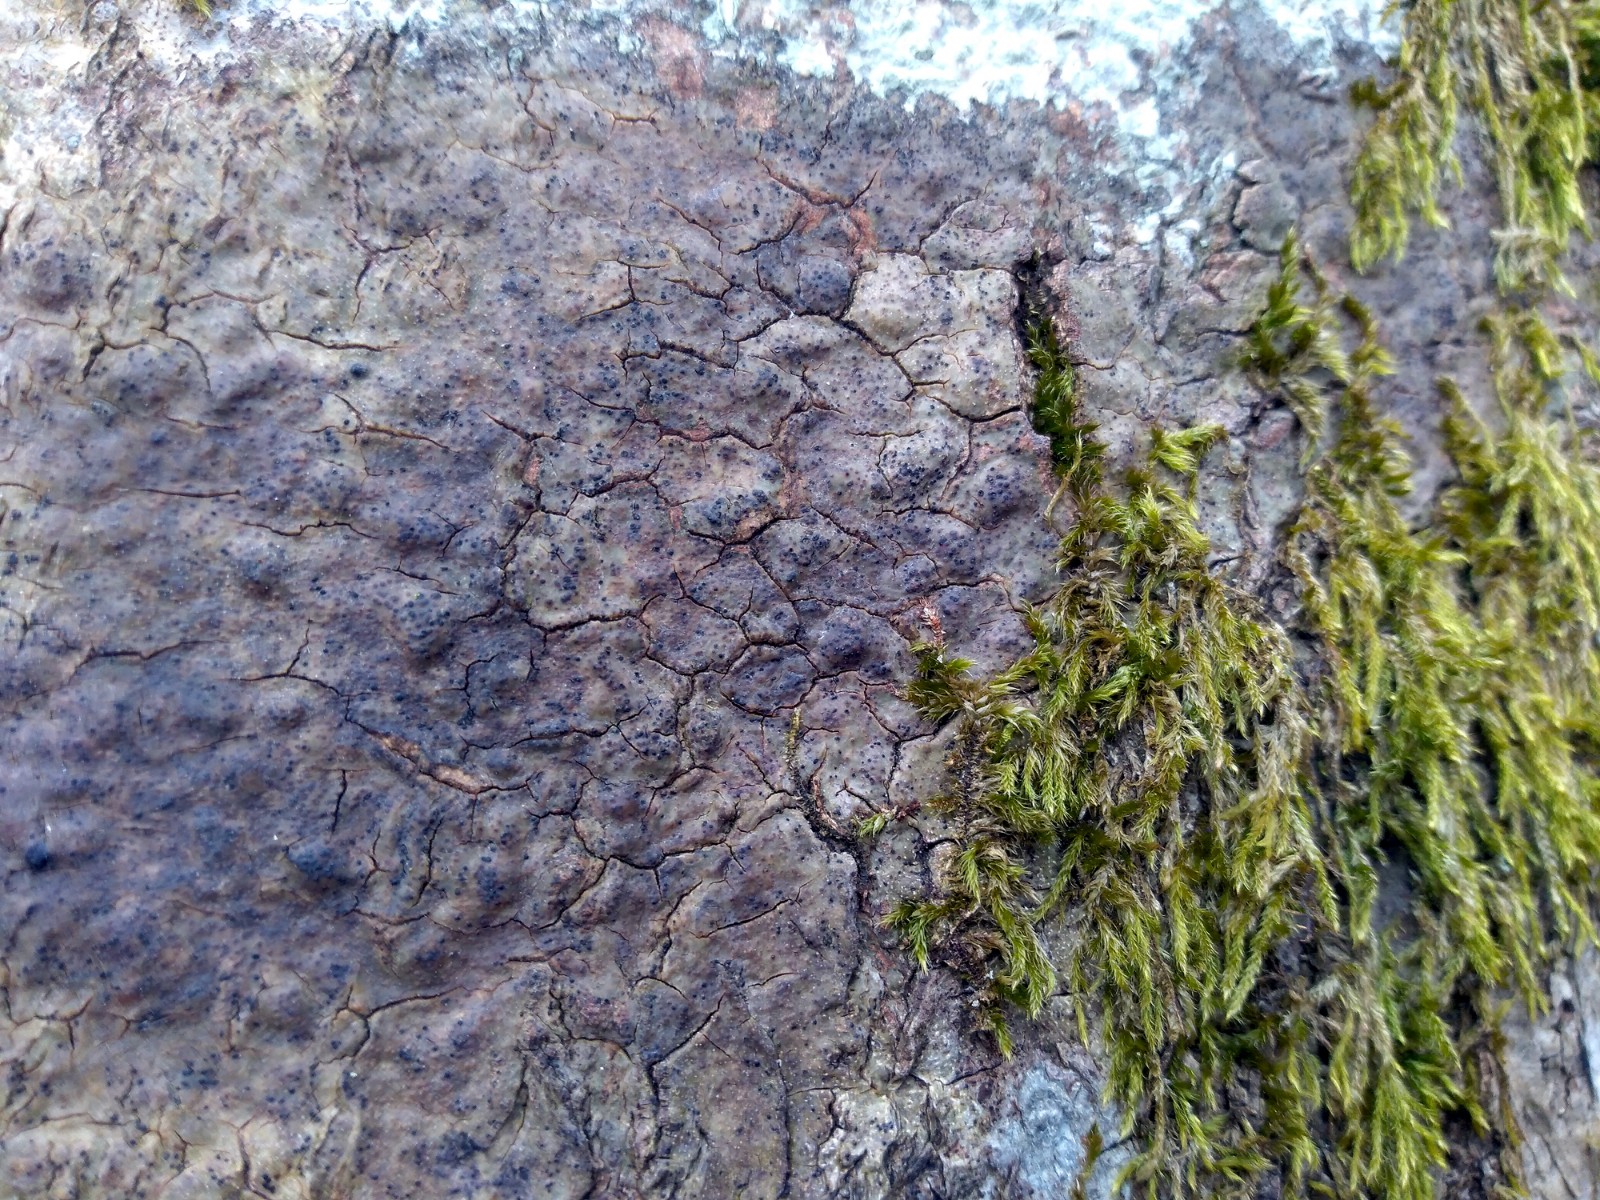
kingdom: Fungi
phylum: Ascomycota
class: Eurotiomycetes
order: Pyrenulales
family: Pyrenulaceae
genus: Pyrenula
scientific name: Pyrenula nitida
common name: glinsende kernelav
